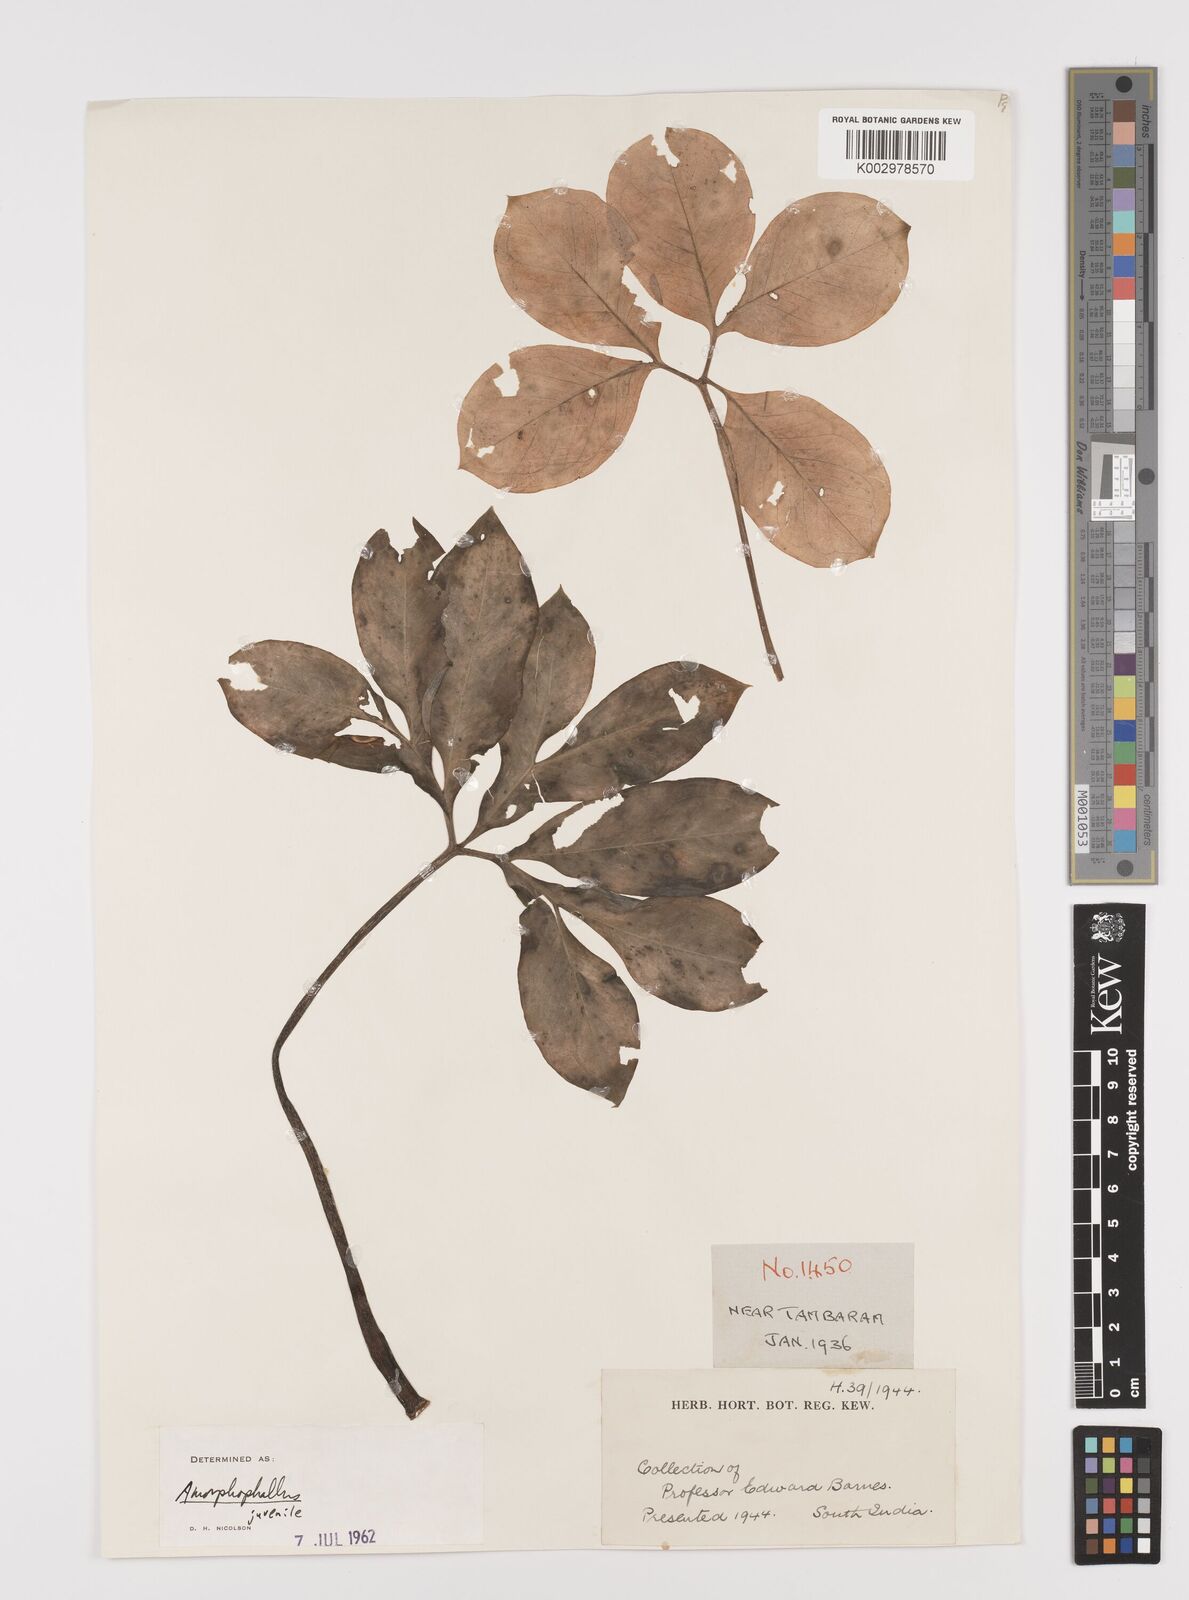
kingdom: Plantae
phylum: Tracheophyta
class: Liliopsida
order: Alismatales
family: Araceae
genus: Amorphophallus
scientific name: Amorphophallus
